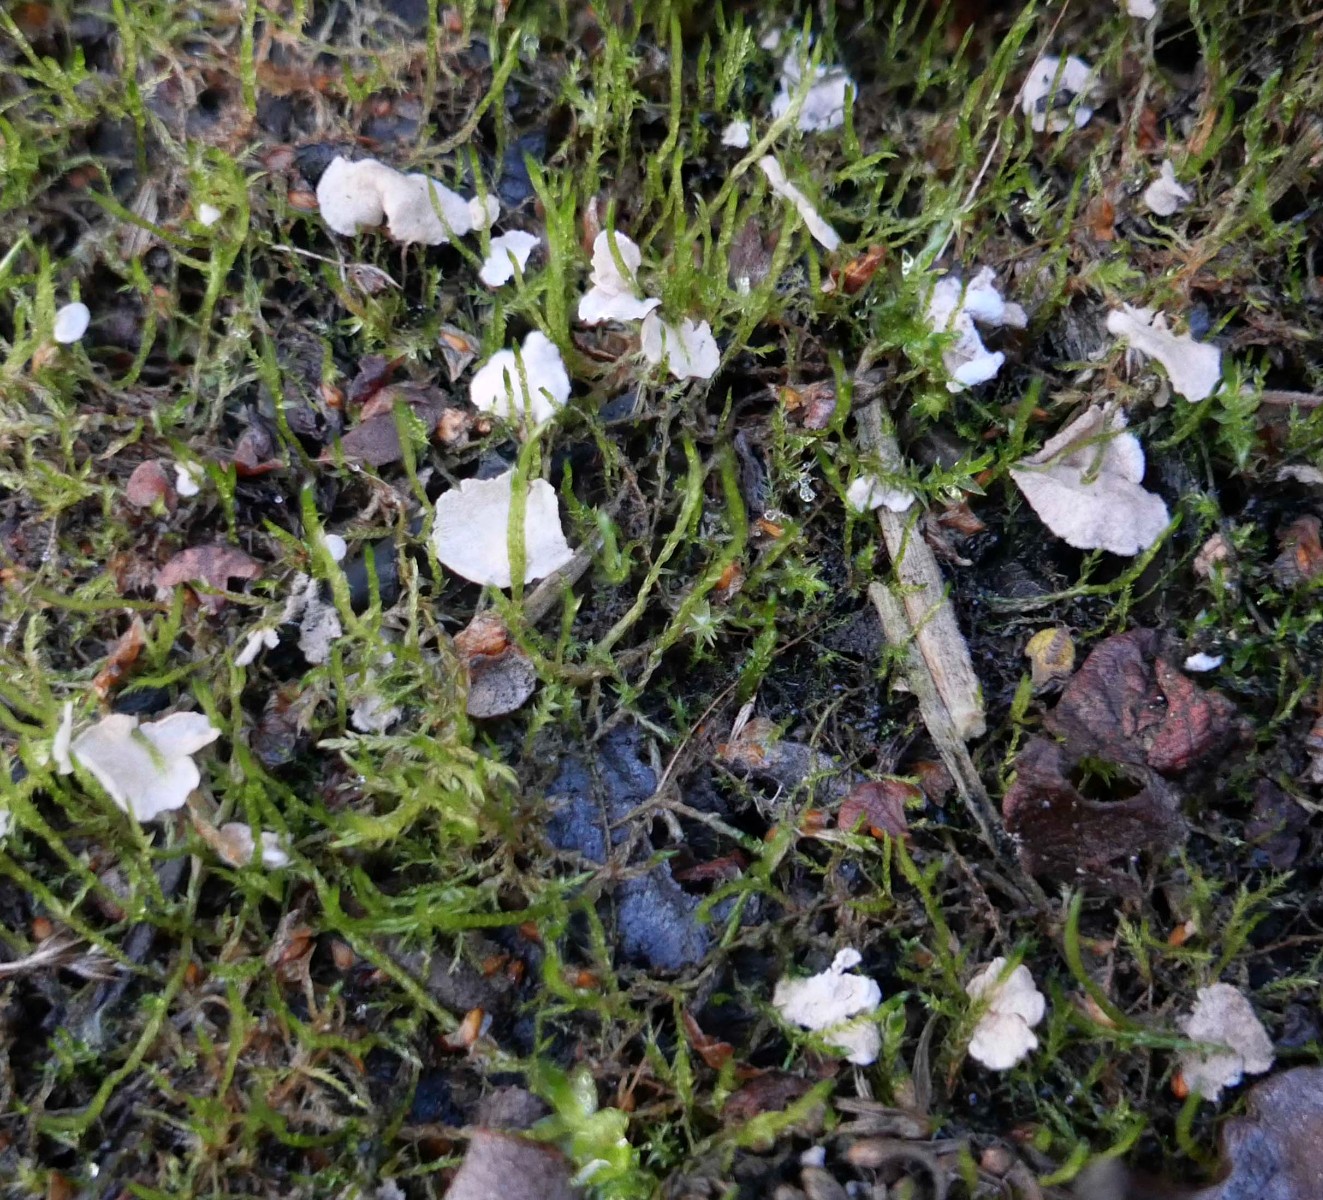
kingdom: Fungi
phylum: Basidiomycota
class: Agaricomycetes
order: Agaricales
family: Hygrophoraceae
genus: Arrhenia
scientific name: Arrhenia retiruga
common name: lille fontænehat
